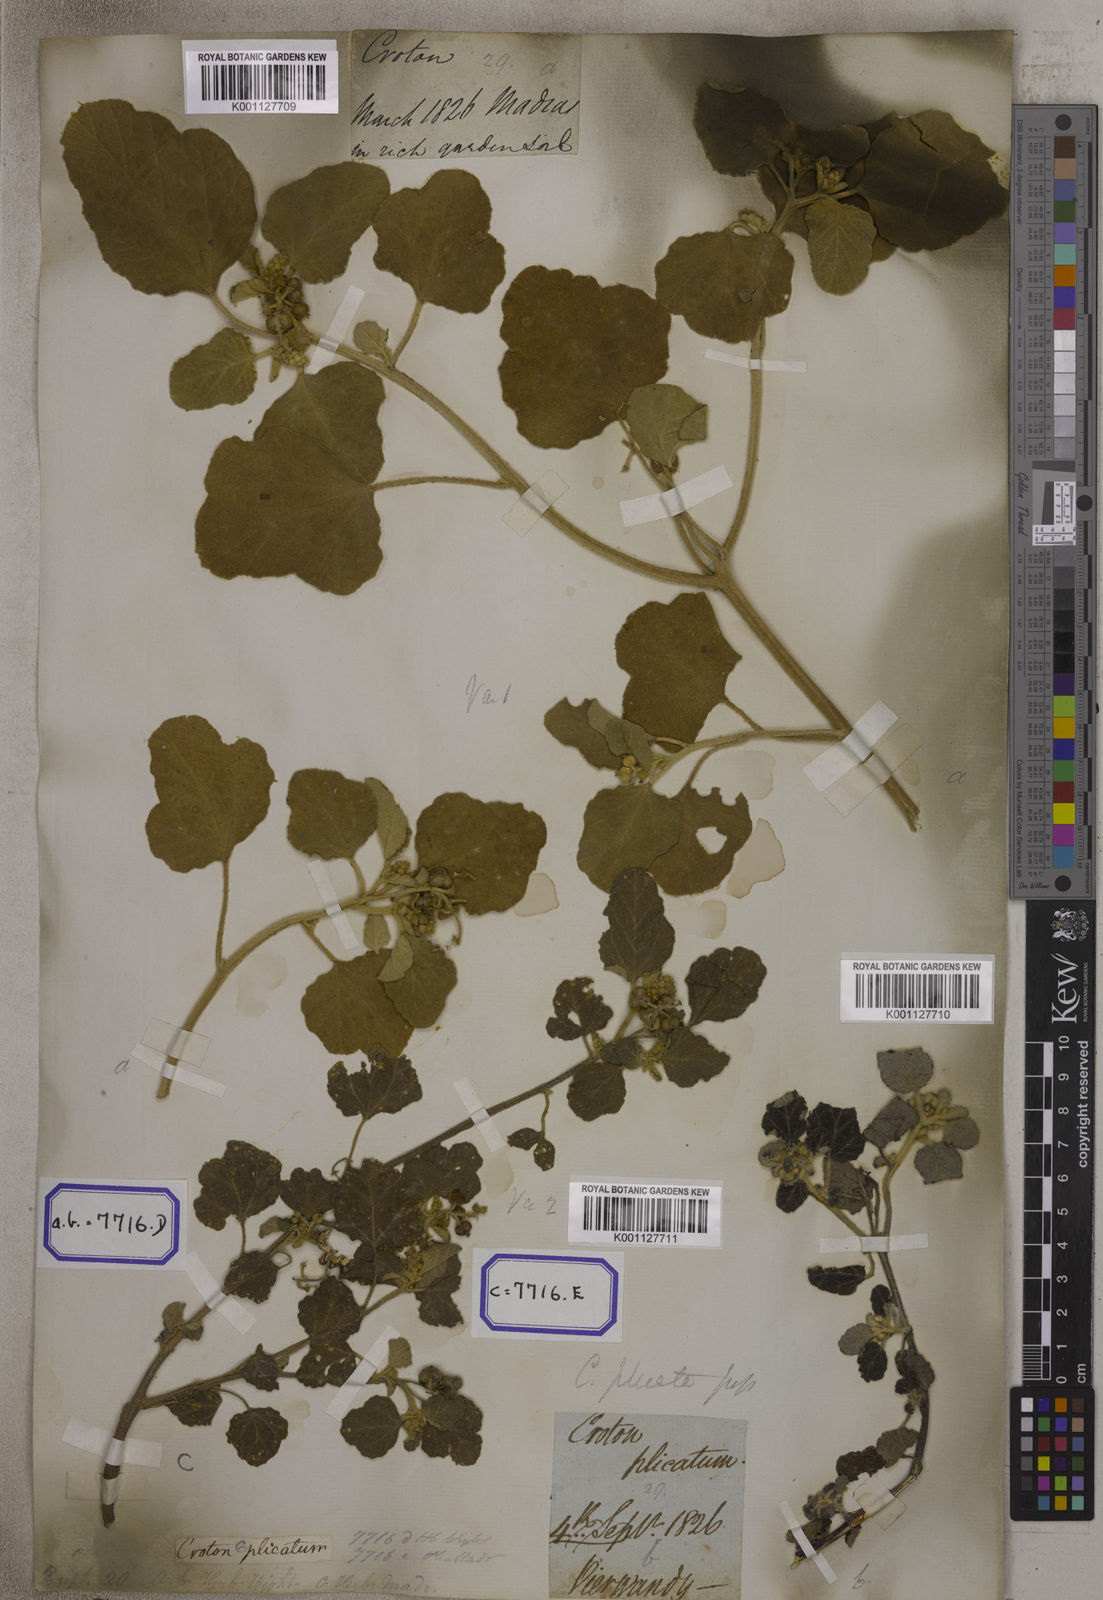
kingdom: Plantae
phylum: Tracheophyta
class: Magnoliopsida
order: Malpighiales
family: Euphorbiaceae
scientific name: Euphorbiaceae
